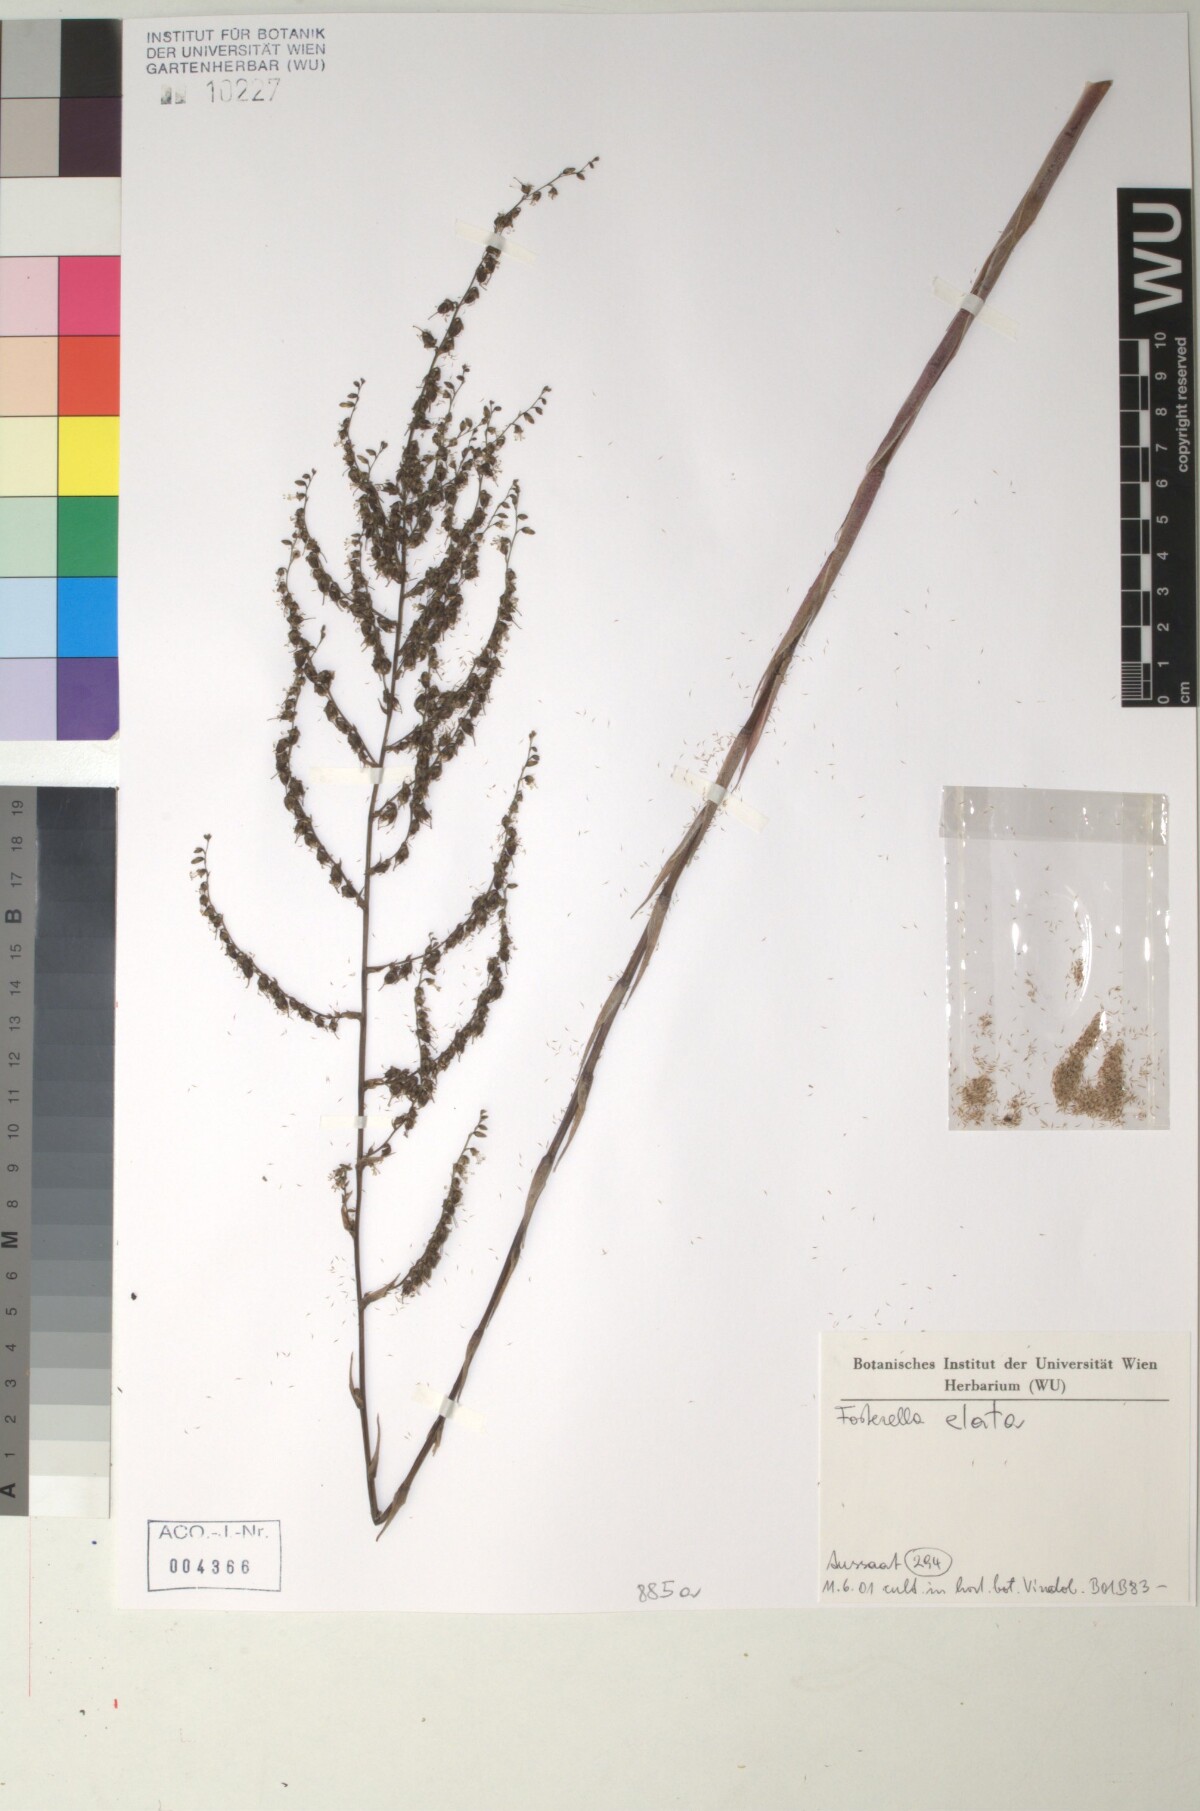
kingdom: Plantae
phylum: Tracheophyta
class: Liliopsida
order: Poales
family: Bromeliaceae
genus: Fosterella
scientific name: Fosterella rusbyi
